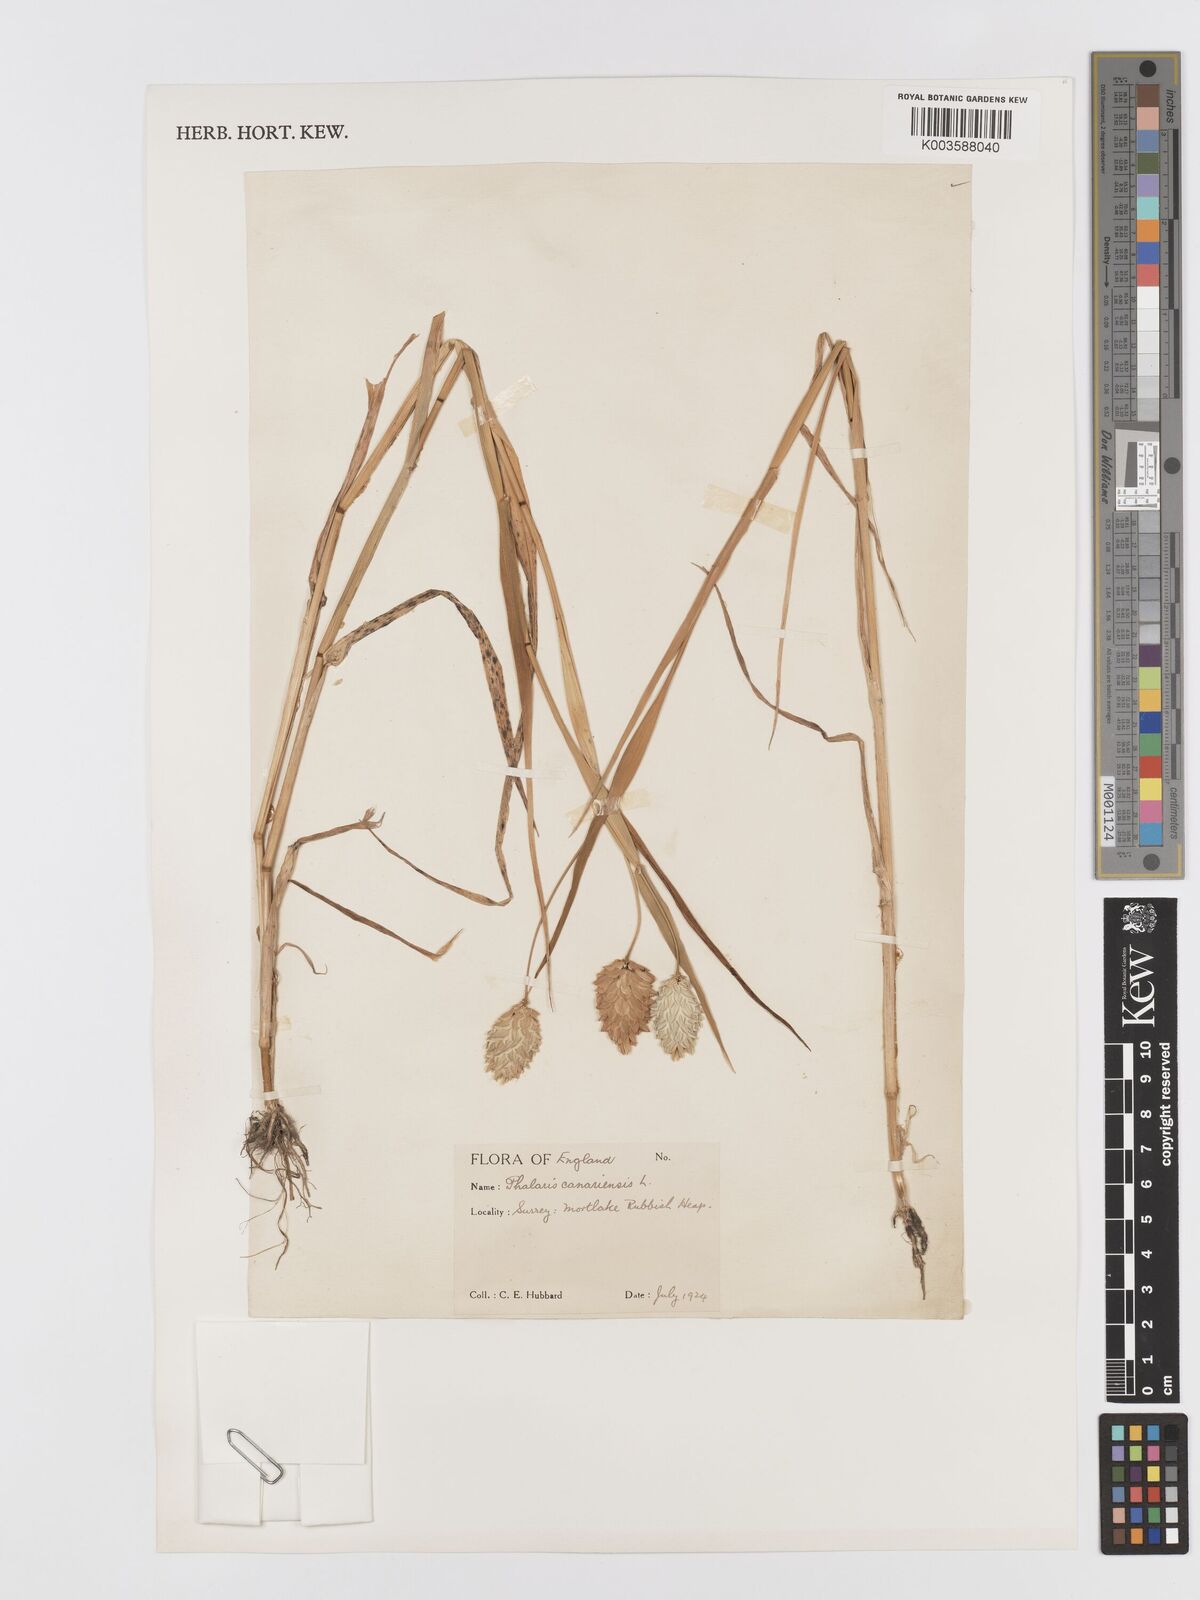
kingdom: Plantae
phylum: Tracheophyta
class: Liliopsida
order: Poales
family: Poaceae
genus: Phalaris
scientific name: Phalaris canariensis
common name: Annual canarygrass
